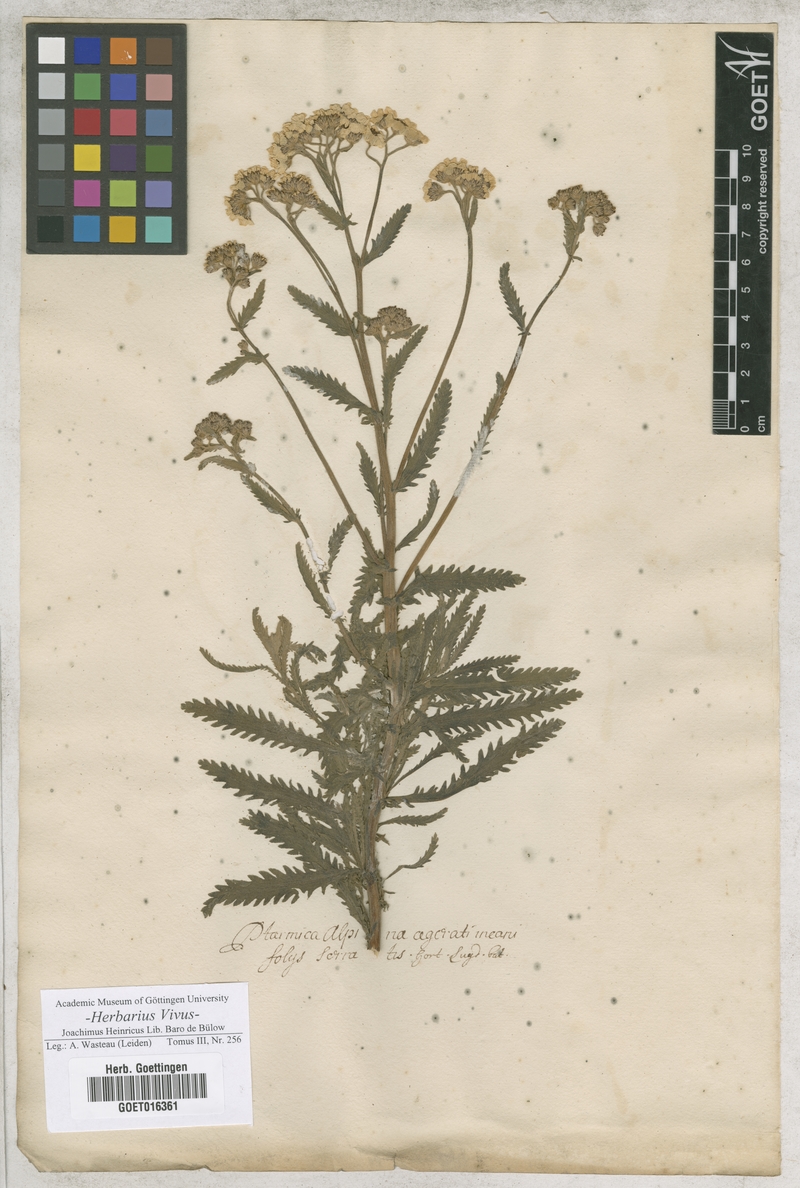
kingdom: Plantae
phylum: Tracheophyta
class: Magnoliopsida
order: Asterales
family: Asteraceae
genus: Achillea
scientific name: Achillea alpina
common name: Siberian yarrow
